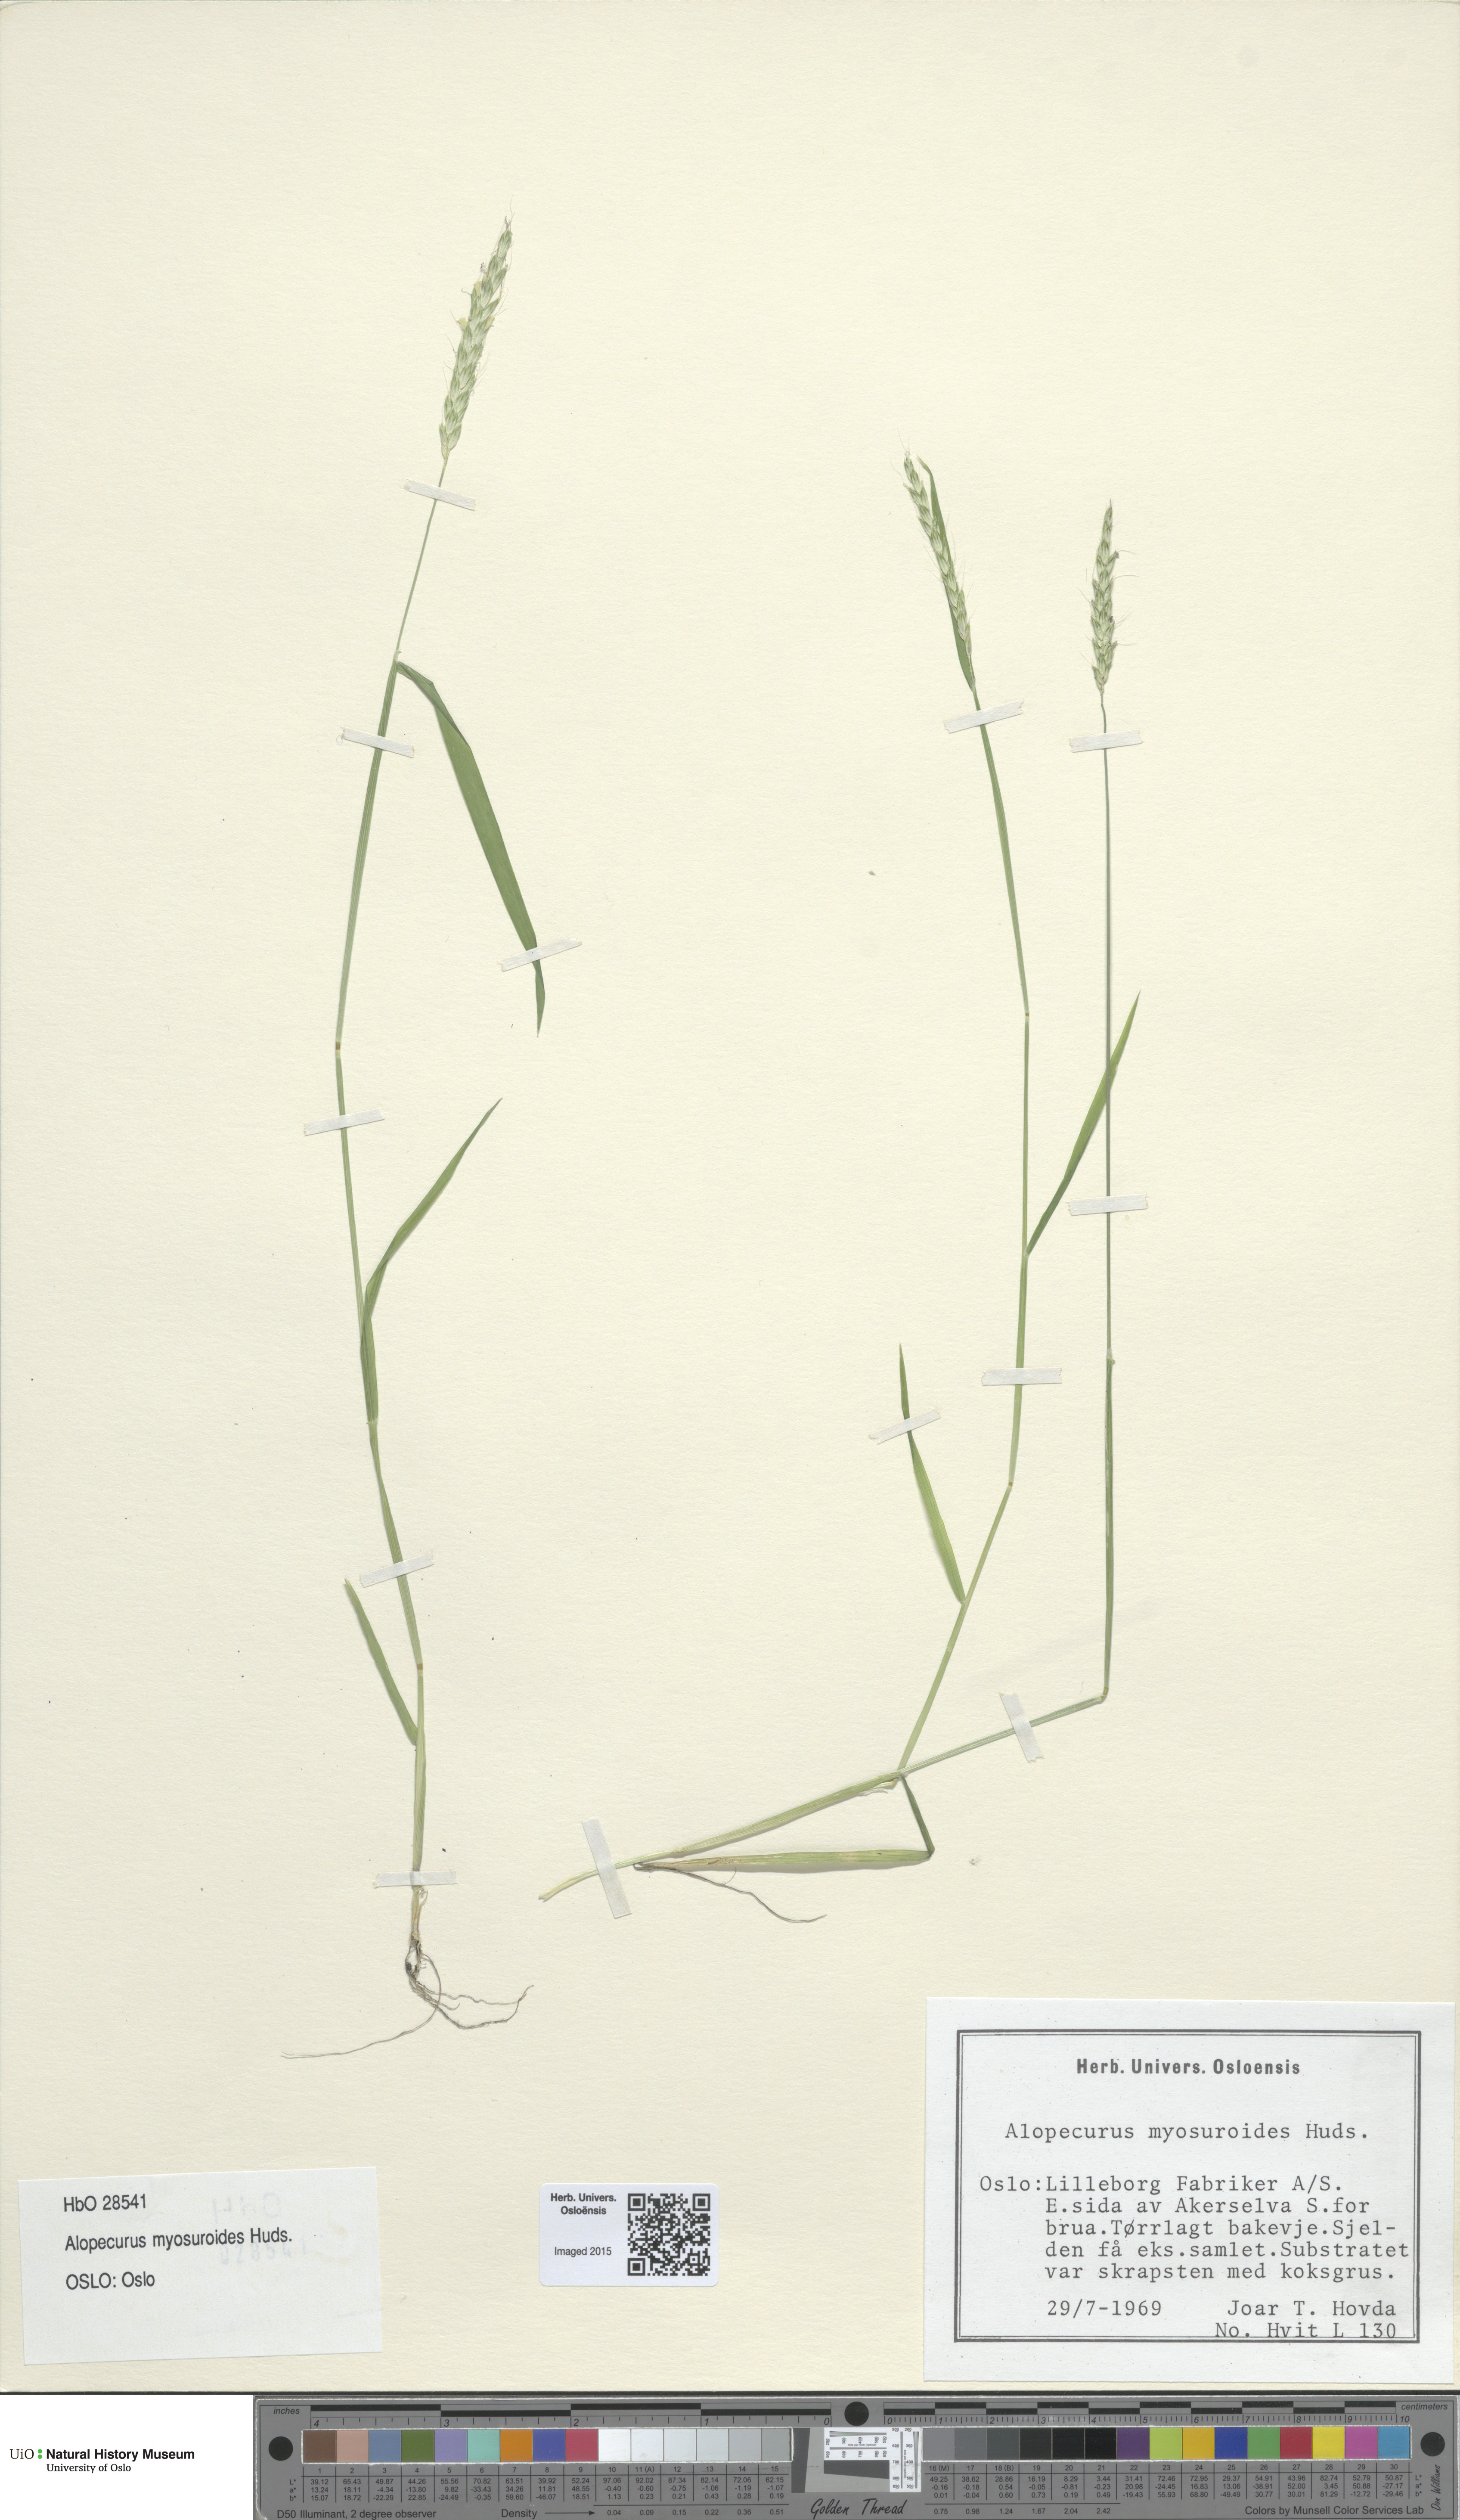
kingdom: Plantae
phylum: Tracheophyta
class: Liliopsida
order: Poales
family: Poaceae
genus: Alopecurus
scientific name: Alopecurus myosuroides
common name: Black-grass
